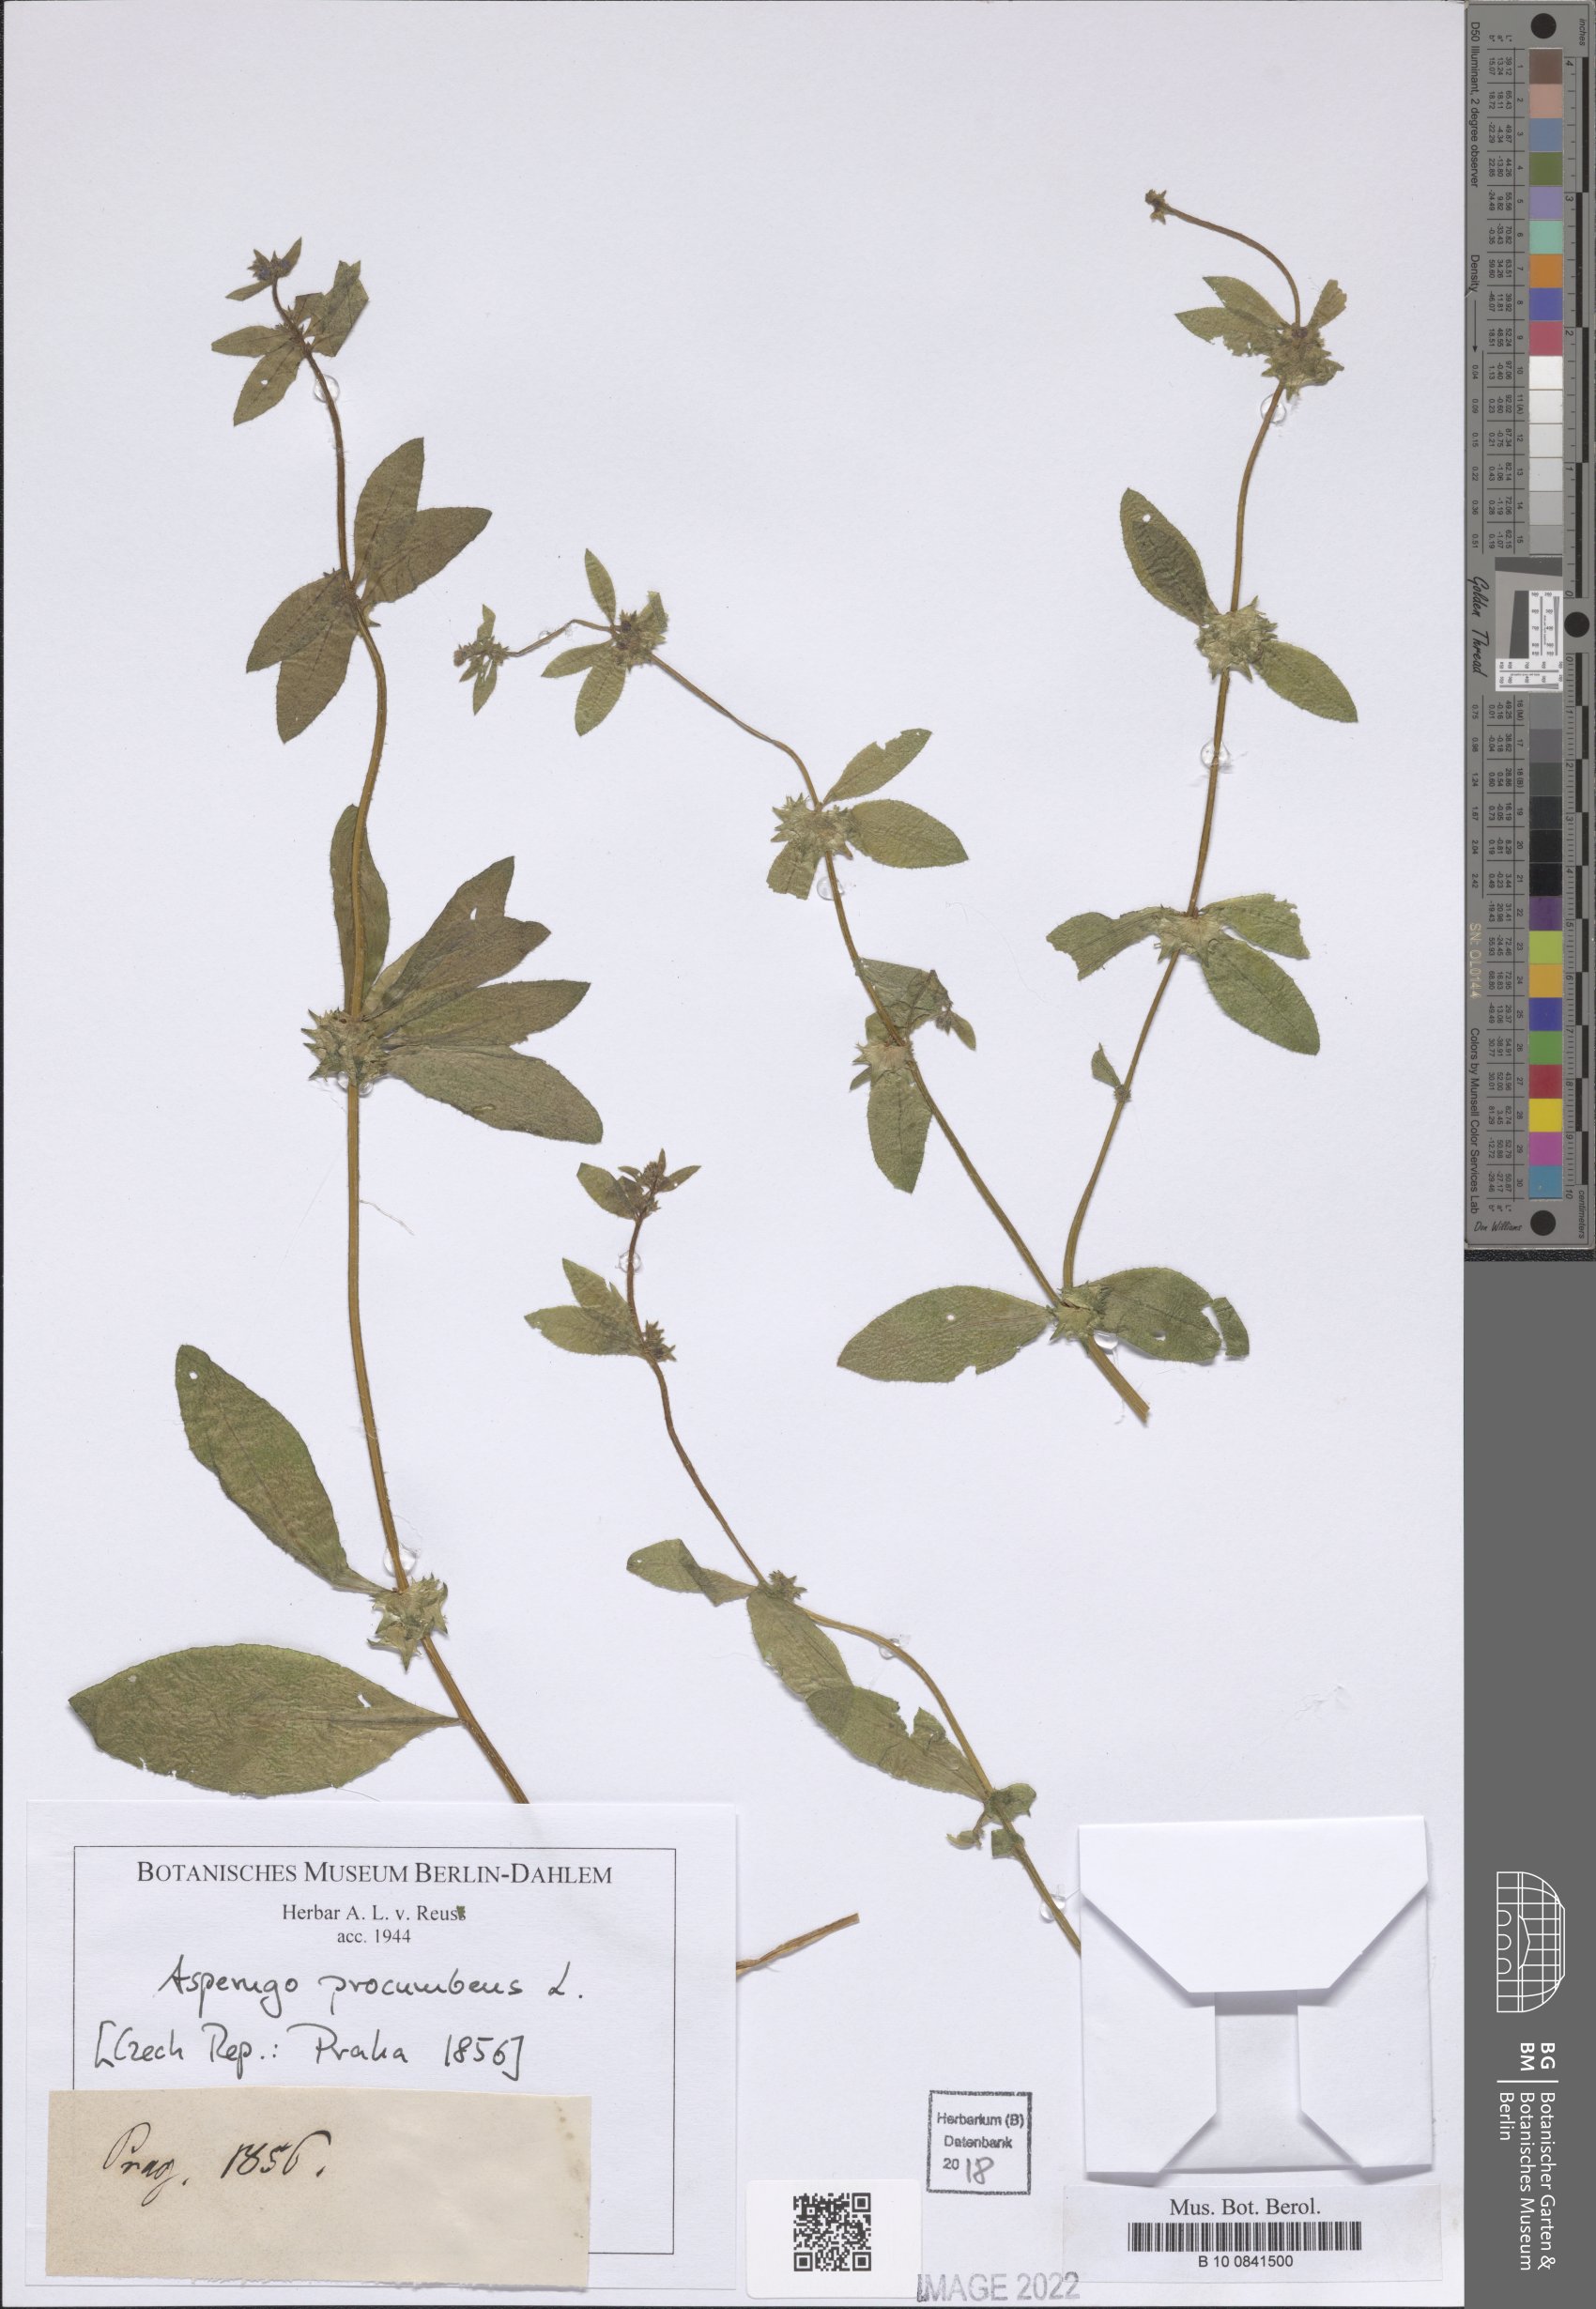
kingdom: Plantae
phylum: Tracheophyta
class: Magnoliopsida
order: Boraginales
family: Boraginaceae
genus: Asperugo
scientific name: Asperugo procumbens
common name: Madwort
